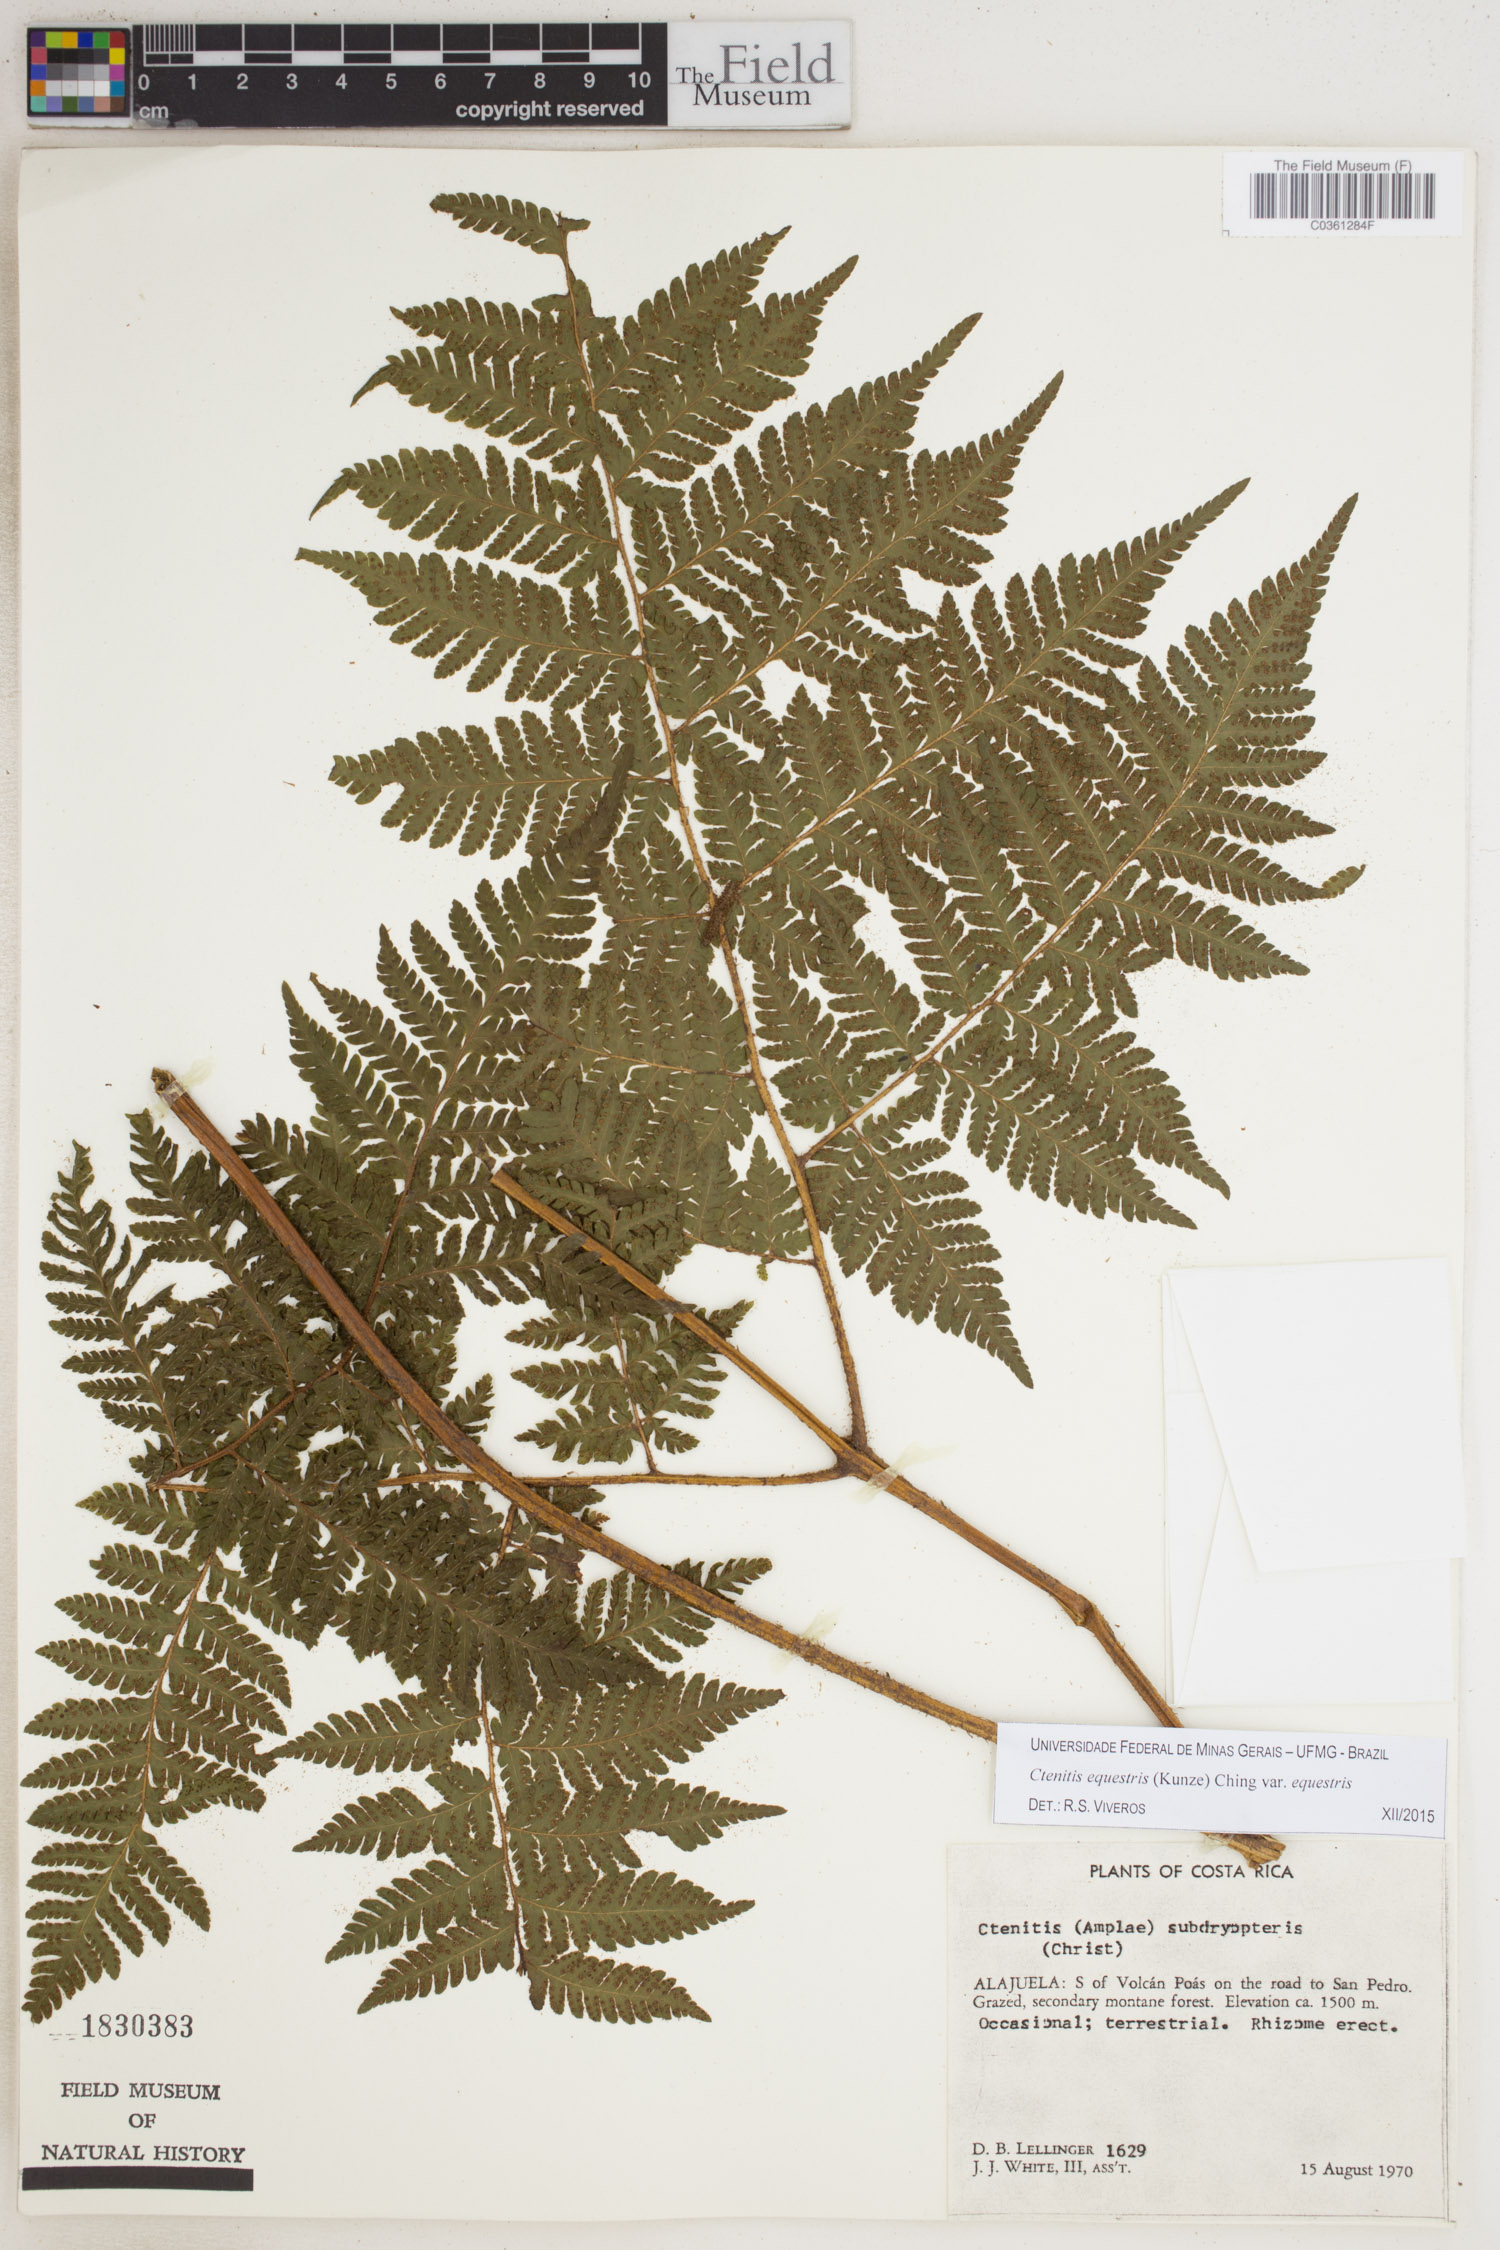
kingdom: Plantae
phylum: Tracheophyta
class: Polypodiopsida
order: Polypodiales
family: Dryopteridaceae
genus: Ctenitis
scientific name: Ctenitis equestris
